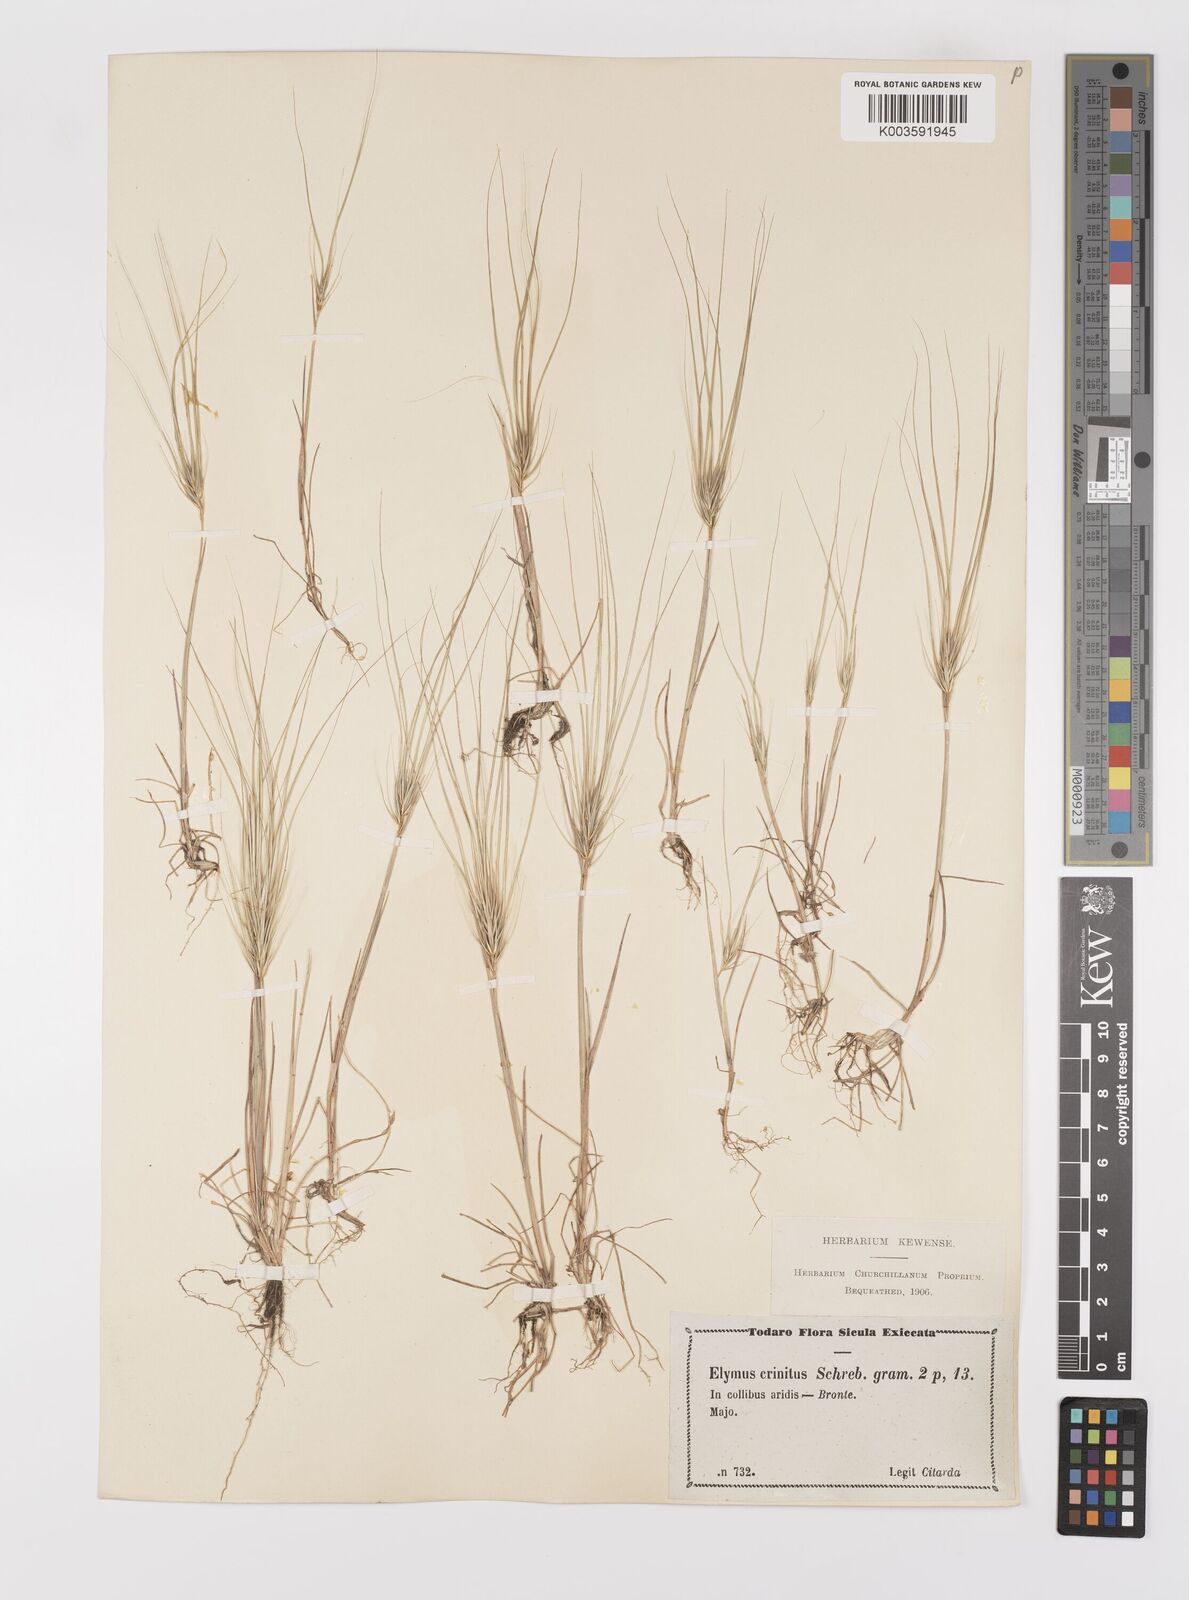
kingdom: Plantae
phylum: Tracheophyta
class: Liliopsida
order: Poales
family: Poaceae
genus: Taeniatherum
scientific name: Taeniatherum caput-medusae
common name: Medusahead
